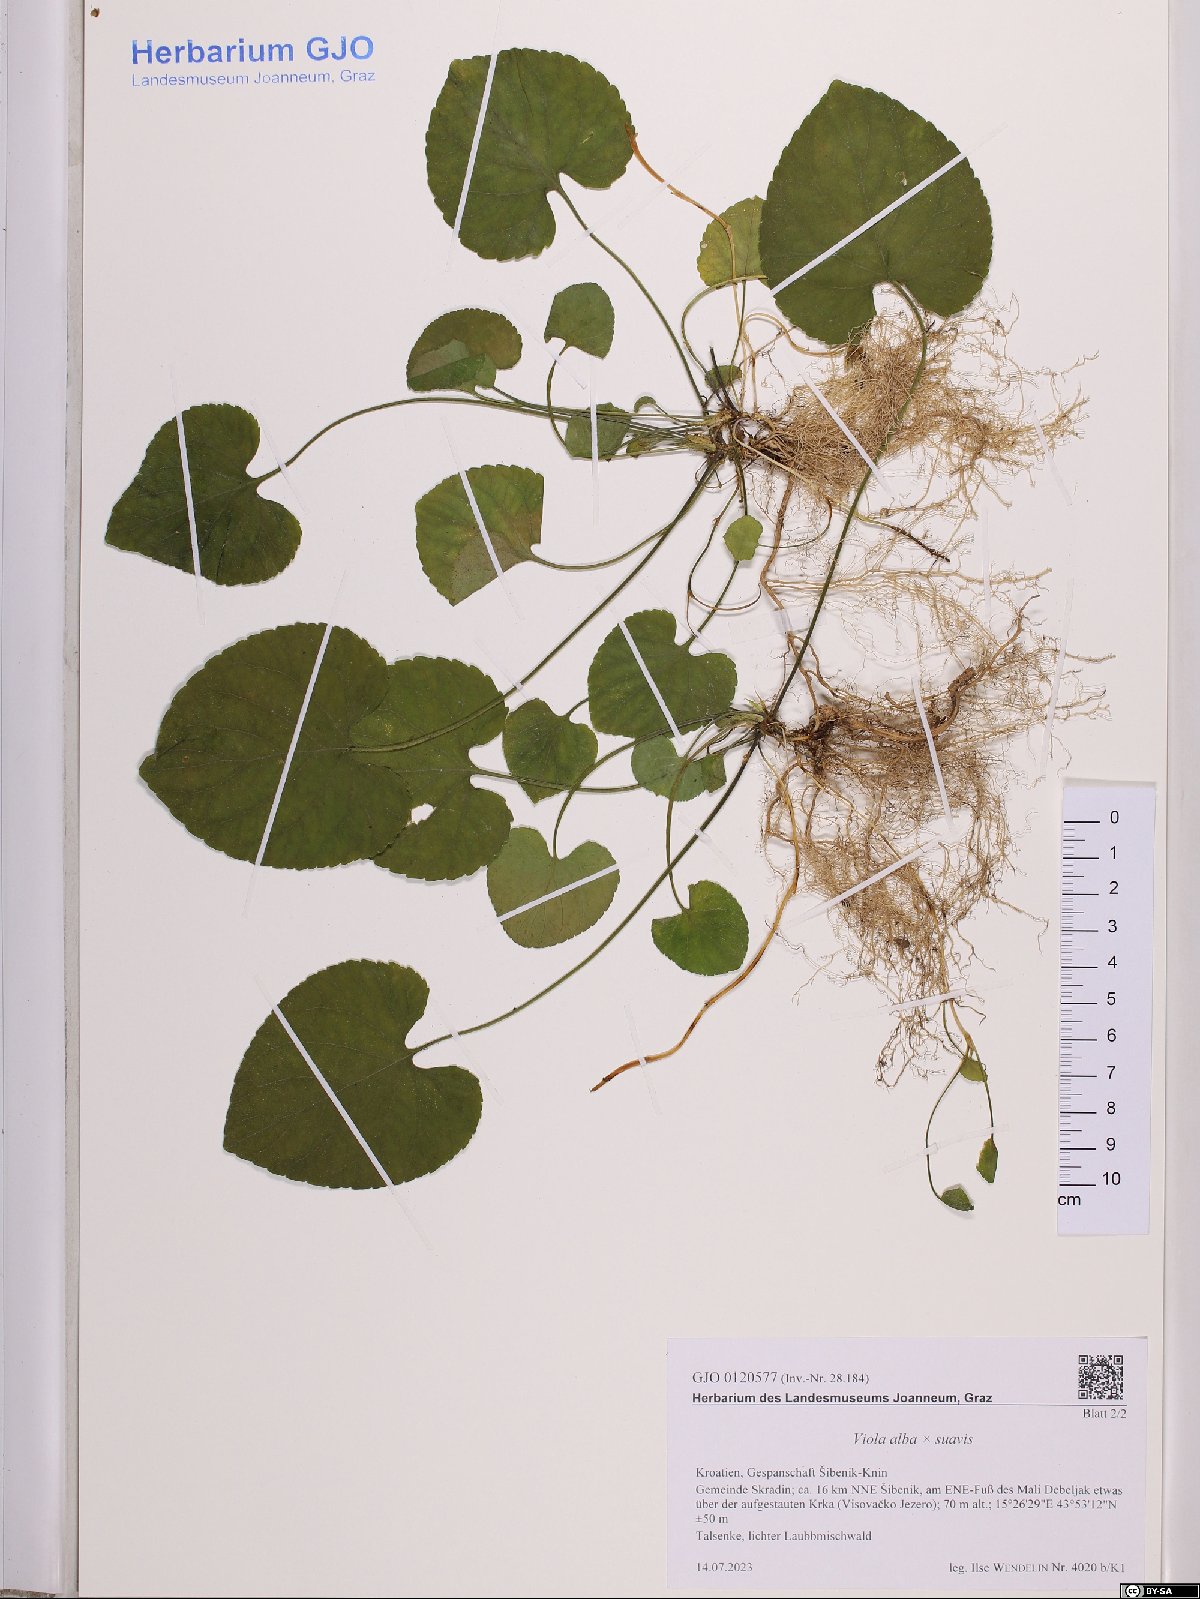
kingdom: Plantae
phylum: Tracheophyta
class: Magnoliopsida
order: Malpighiales
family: Violaceae
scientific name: Violaceae
